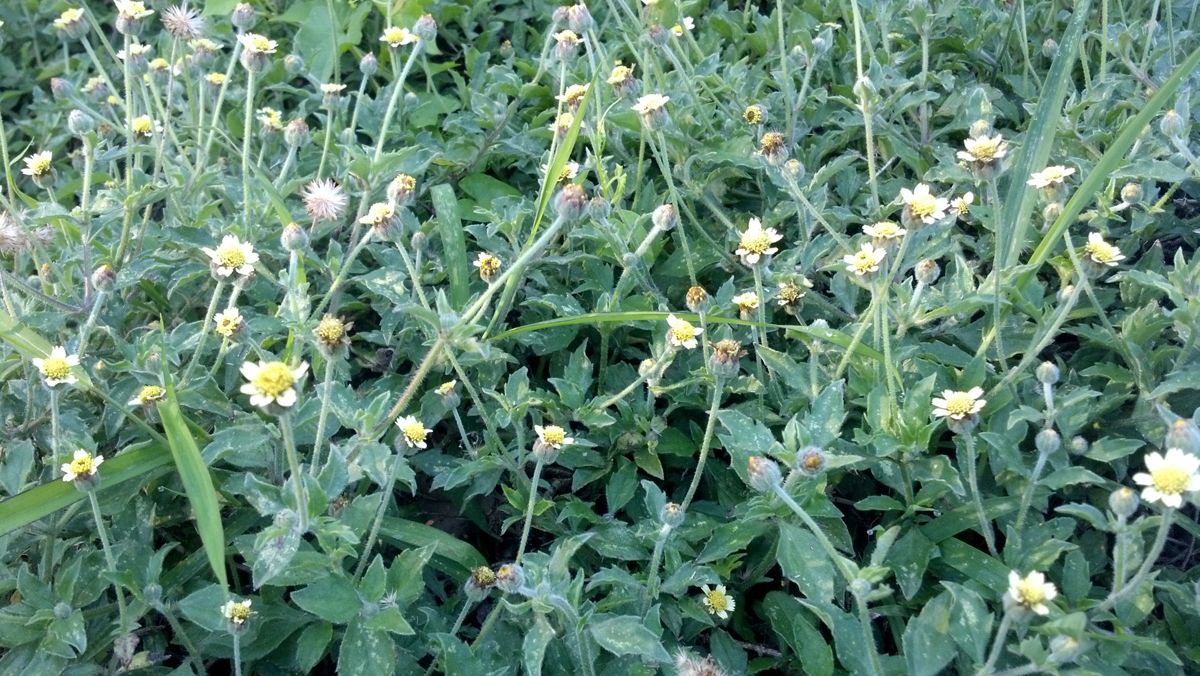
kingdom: Plantae
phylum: Tracheophyta
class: Magnoliopsida
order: Asterales
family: Asteraceae
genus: Tridax
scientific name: Tridax procumbens
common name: Coatbuttons
